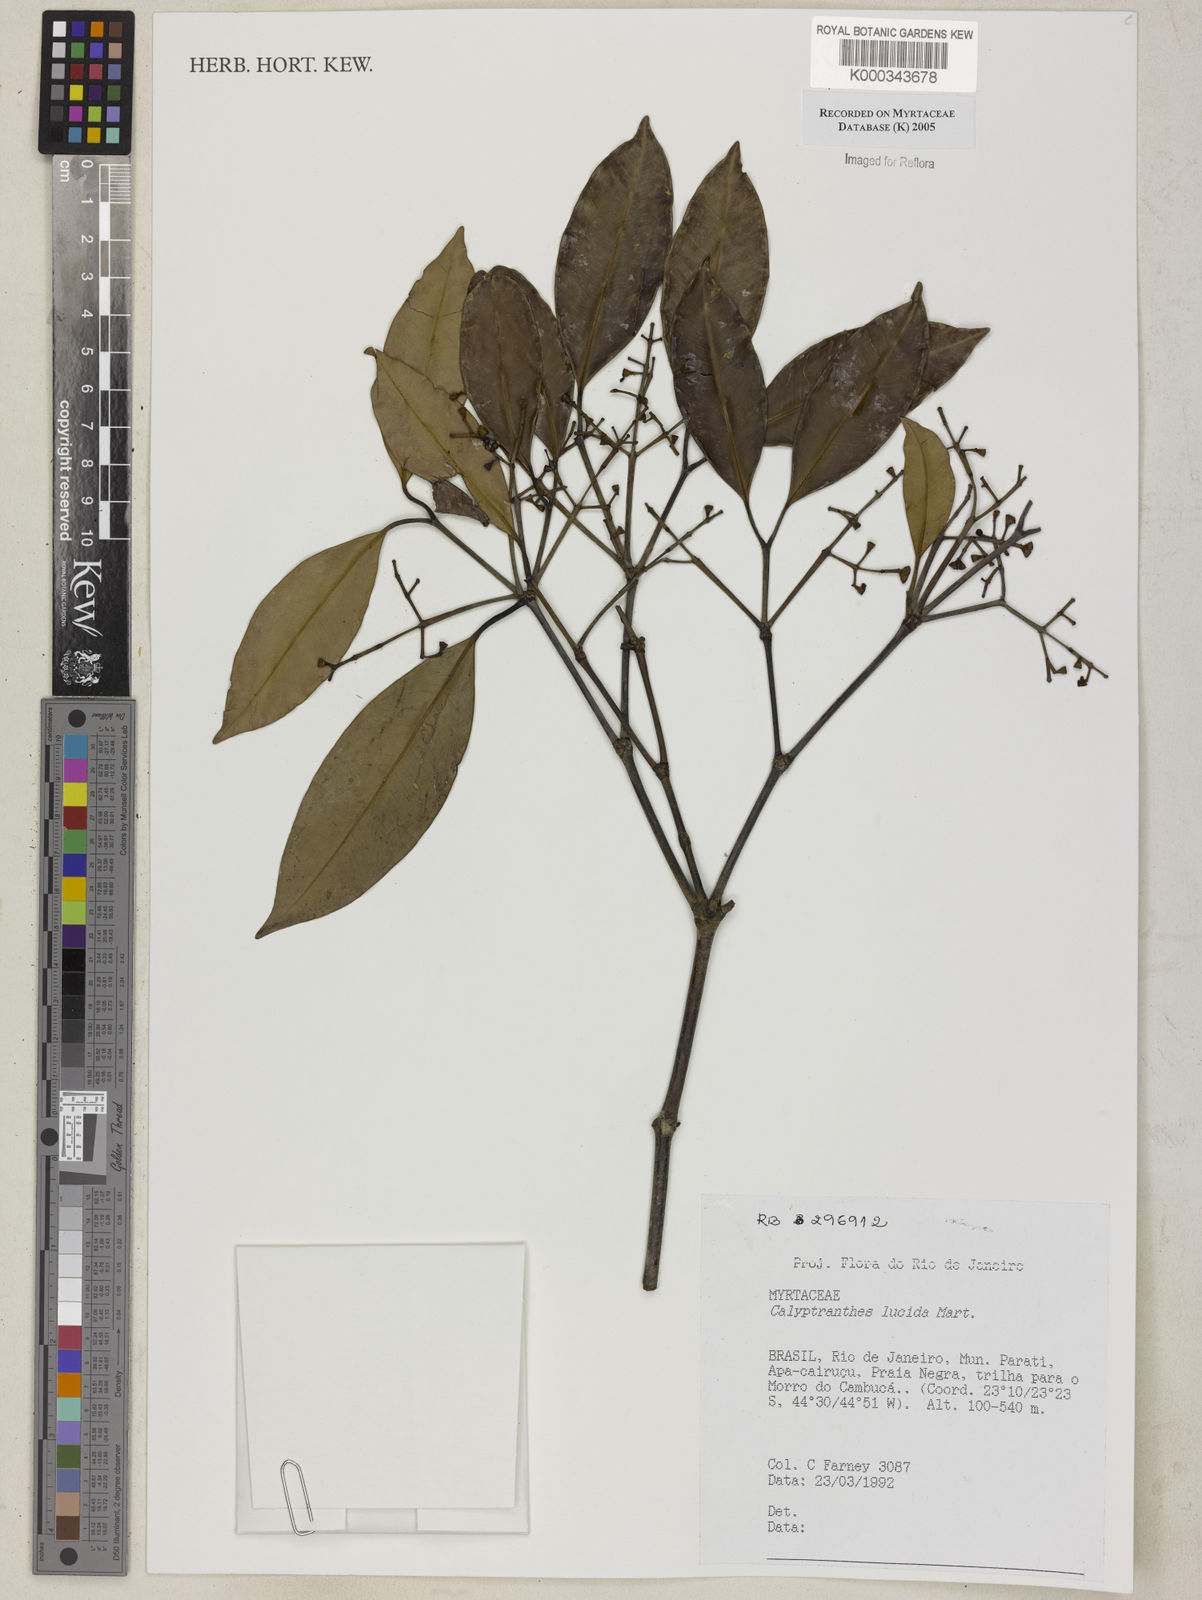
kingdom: Plantae
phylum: Tracheophyta
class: Magnoliopsida
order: Myrtales
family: Myrtaceae
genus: Myrcia
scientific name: Myrcia neolucida
